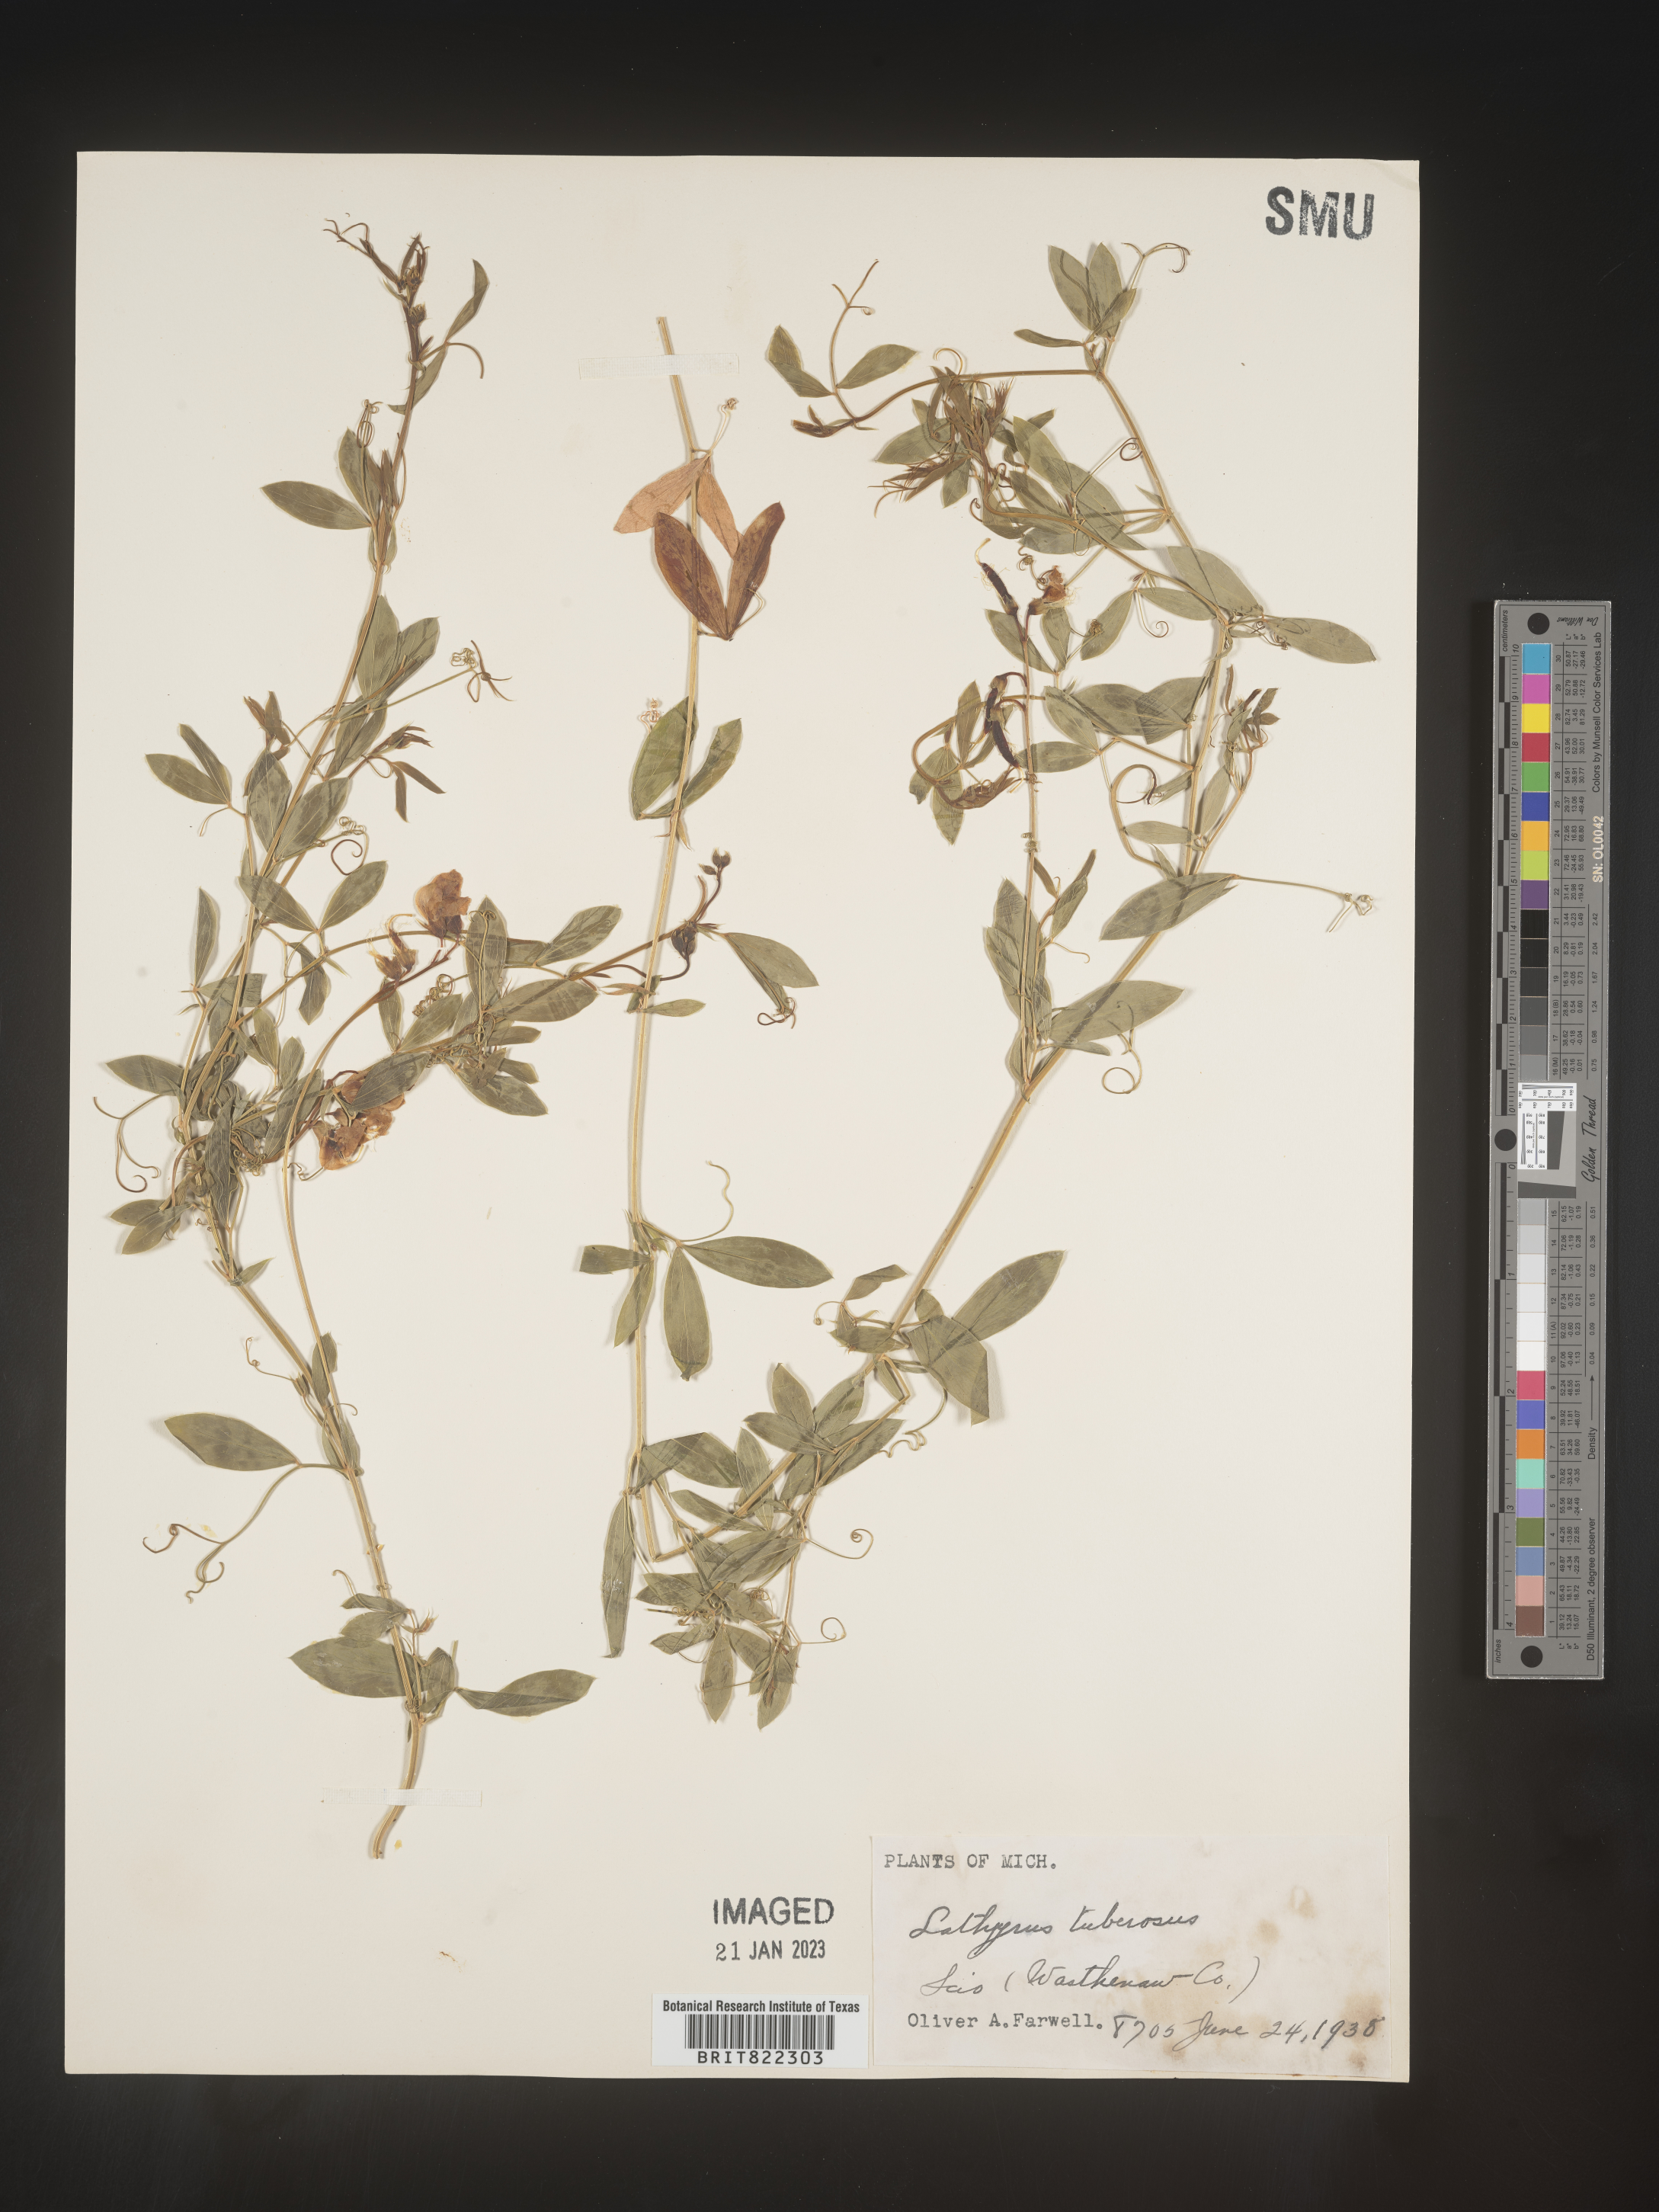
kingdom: Plantae
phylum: Tracheophyta
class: Magnoliopsida
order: Fabales
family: Fabaceae
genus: Lathyrus
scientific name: Lathyrus
